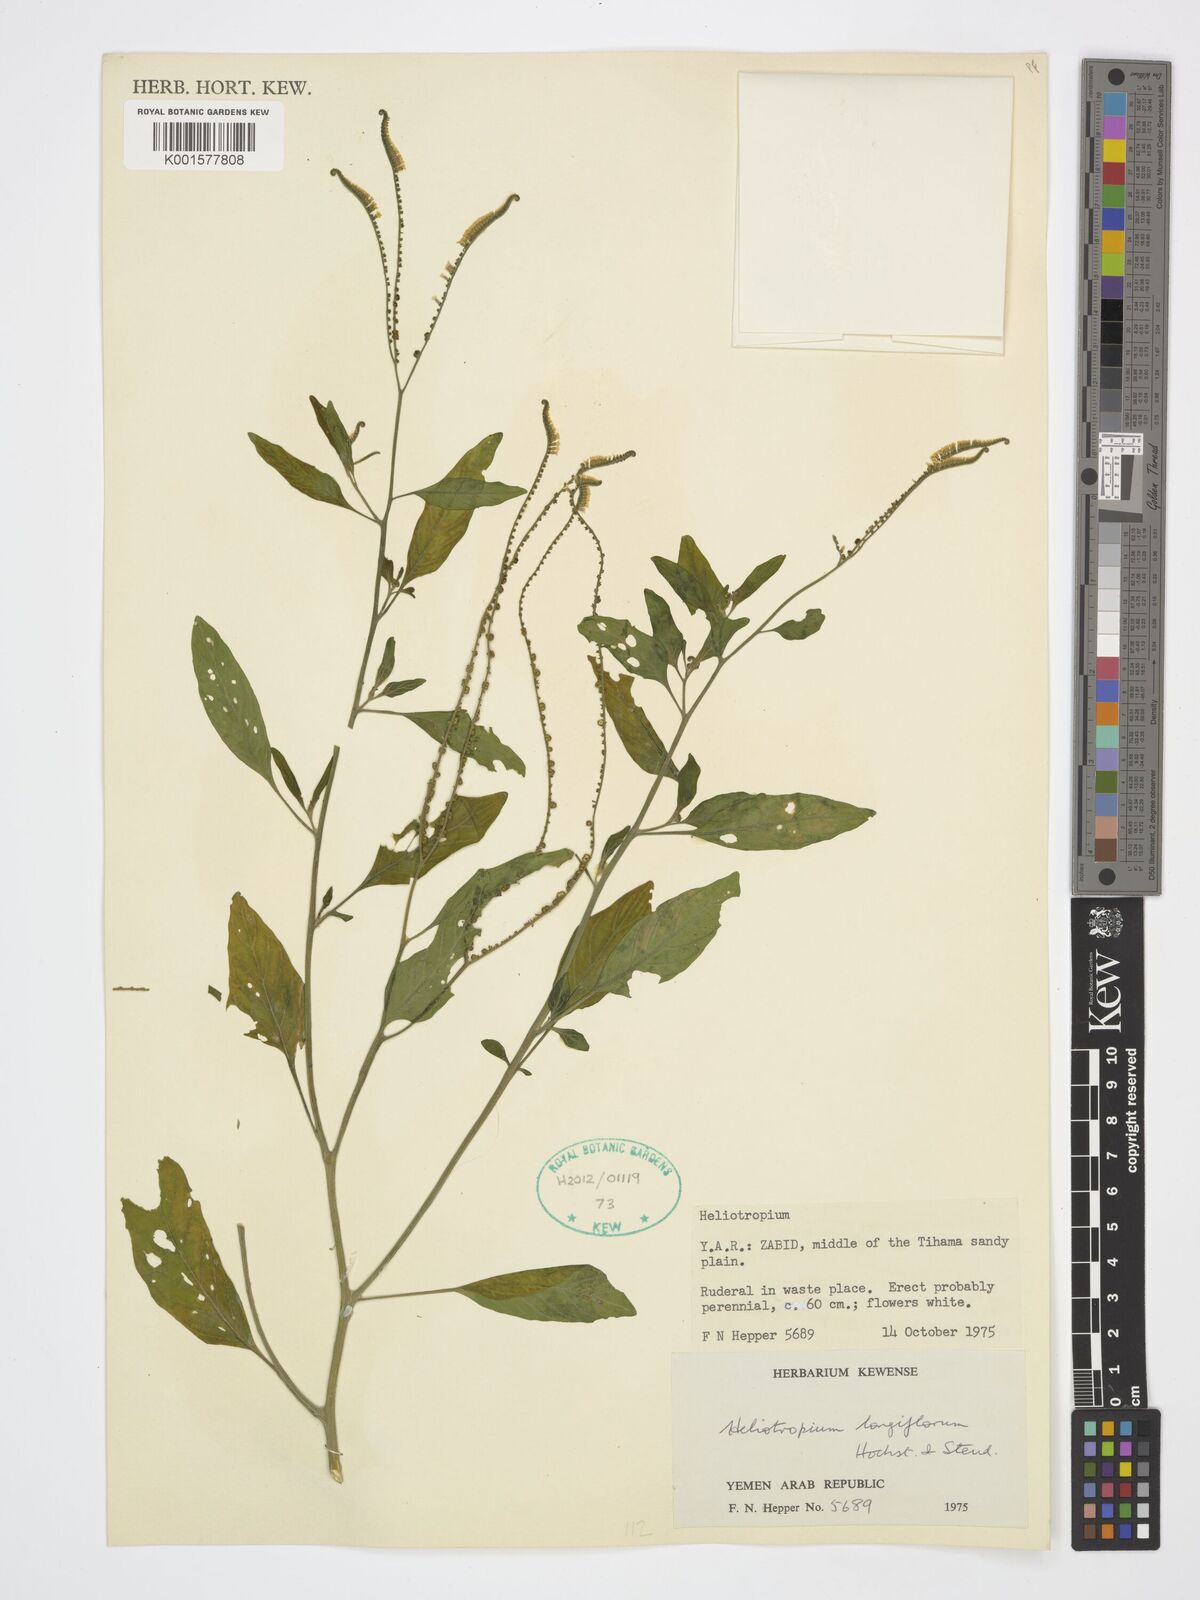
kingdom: Plantae
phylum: Tracheophyta
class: Magnoliopsida
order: Boraginales
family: Heliotropiaceae
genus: Heliotropium
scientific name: Heliotropium longiflorum
